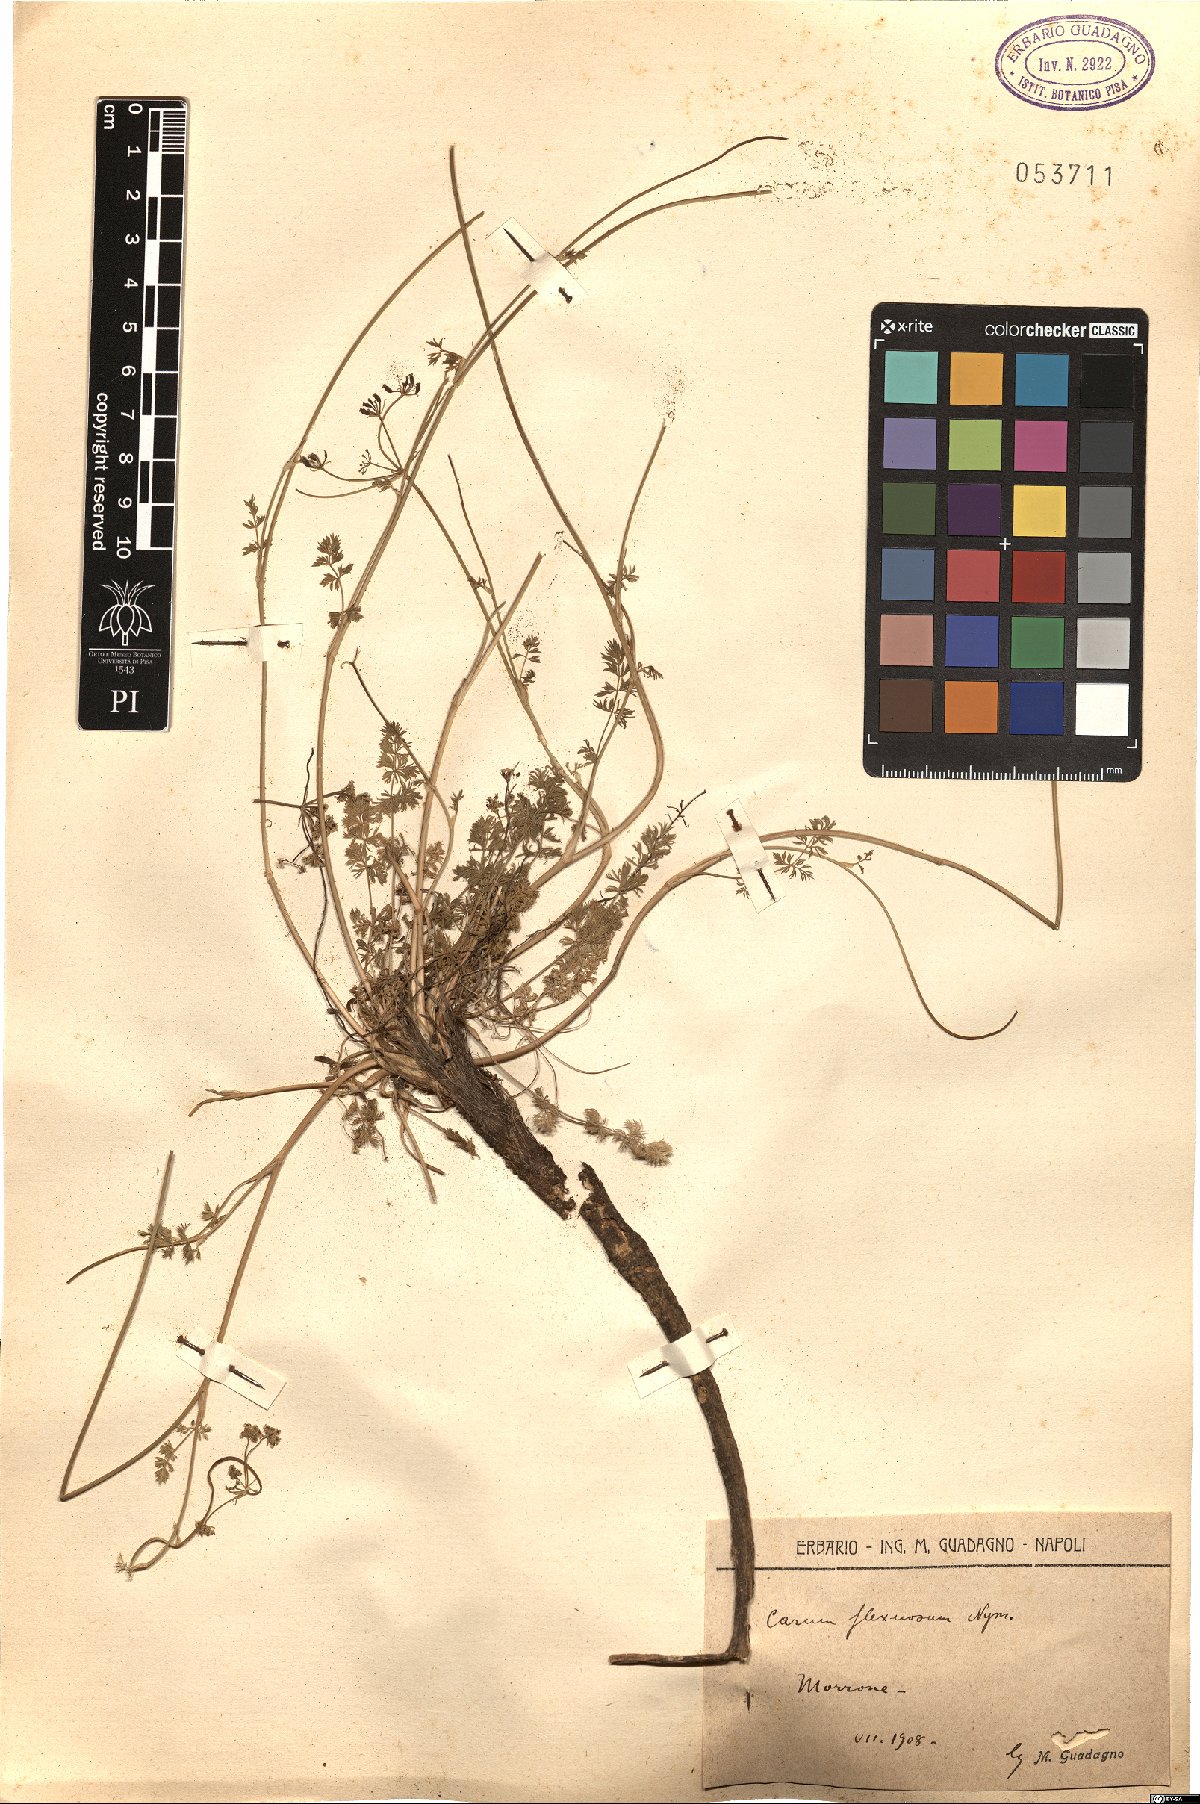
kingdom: Plantae
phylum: Tracheophyta
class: Magnoliopsida
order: Apiales
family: Apiaceae
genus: Selinum
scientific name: Selinum carvifolia
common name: Cambridge milk-parsley
